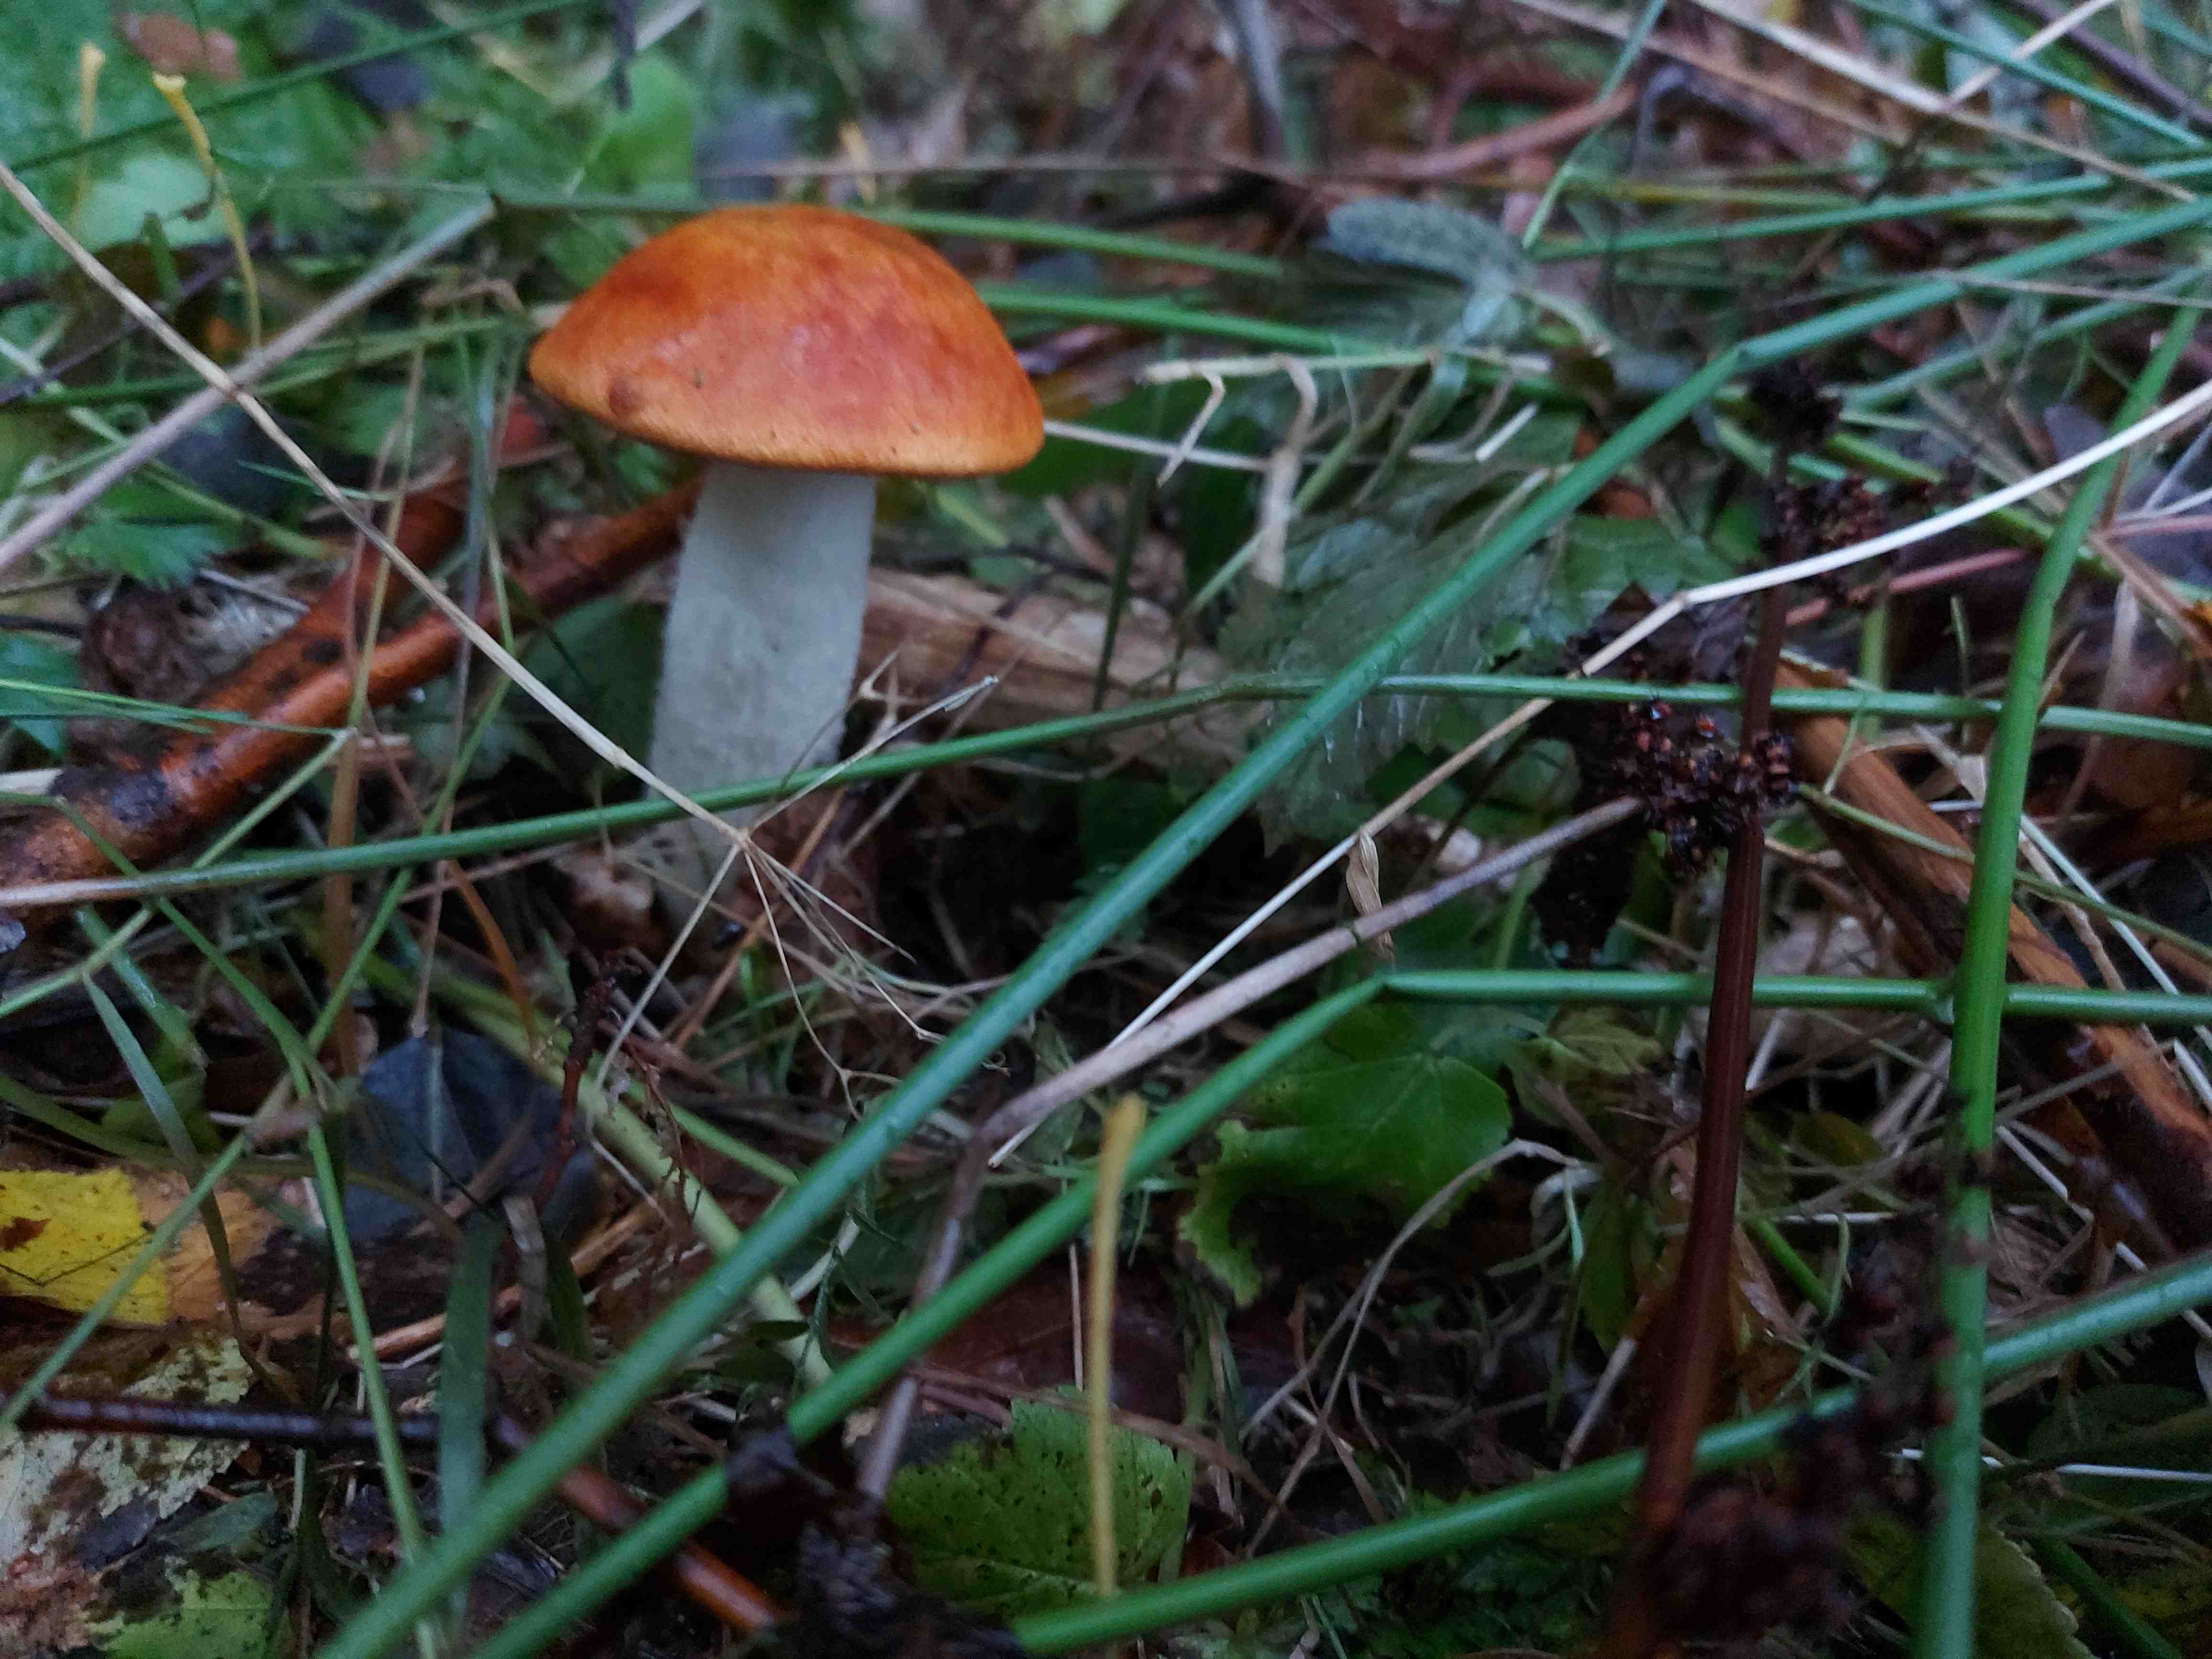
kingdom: Fungi
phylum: Basidiomycota
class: Agaricomycetes
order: Boletales
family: Boletaceae
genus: Leccinum
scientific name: Leccinum albostipitatum
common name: aspe-skælrørhat
